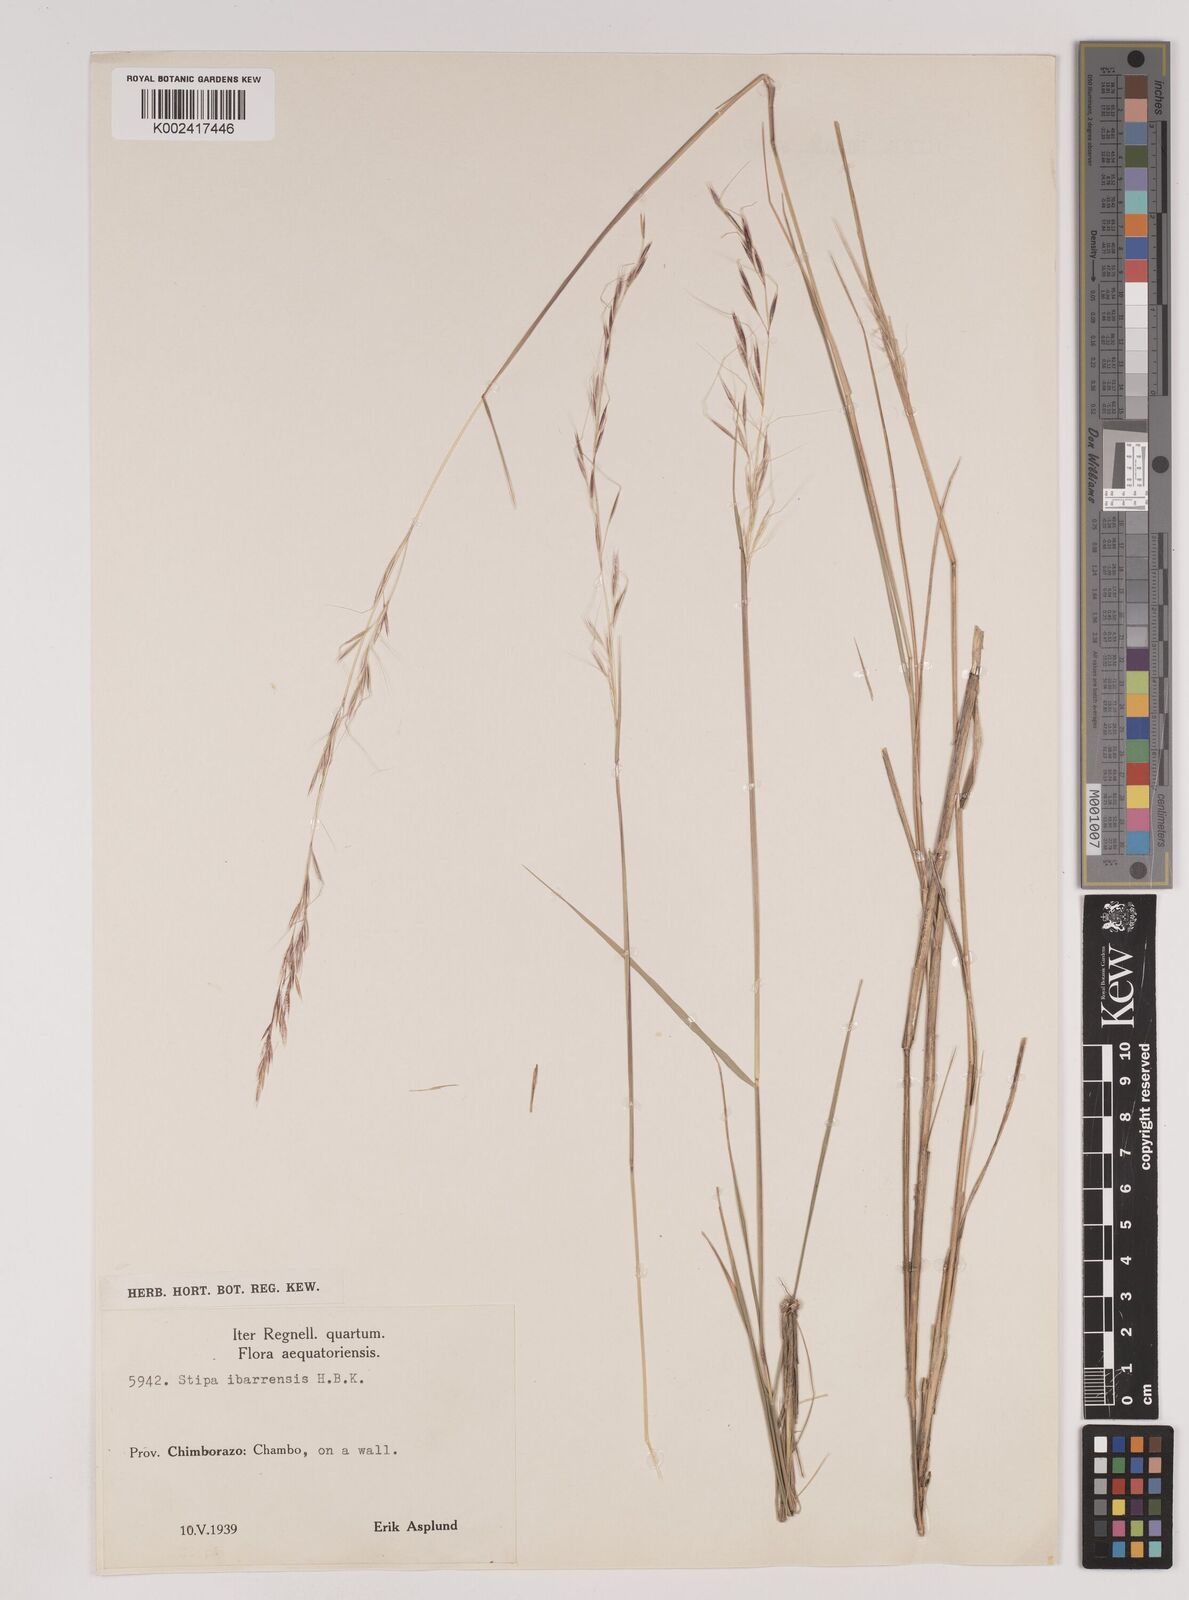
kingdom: Plantae
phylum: Tracheophyta
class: Liliopsida
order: Poales
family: Poaceae
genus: Nassella
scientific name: Nassella ibarrensis
